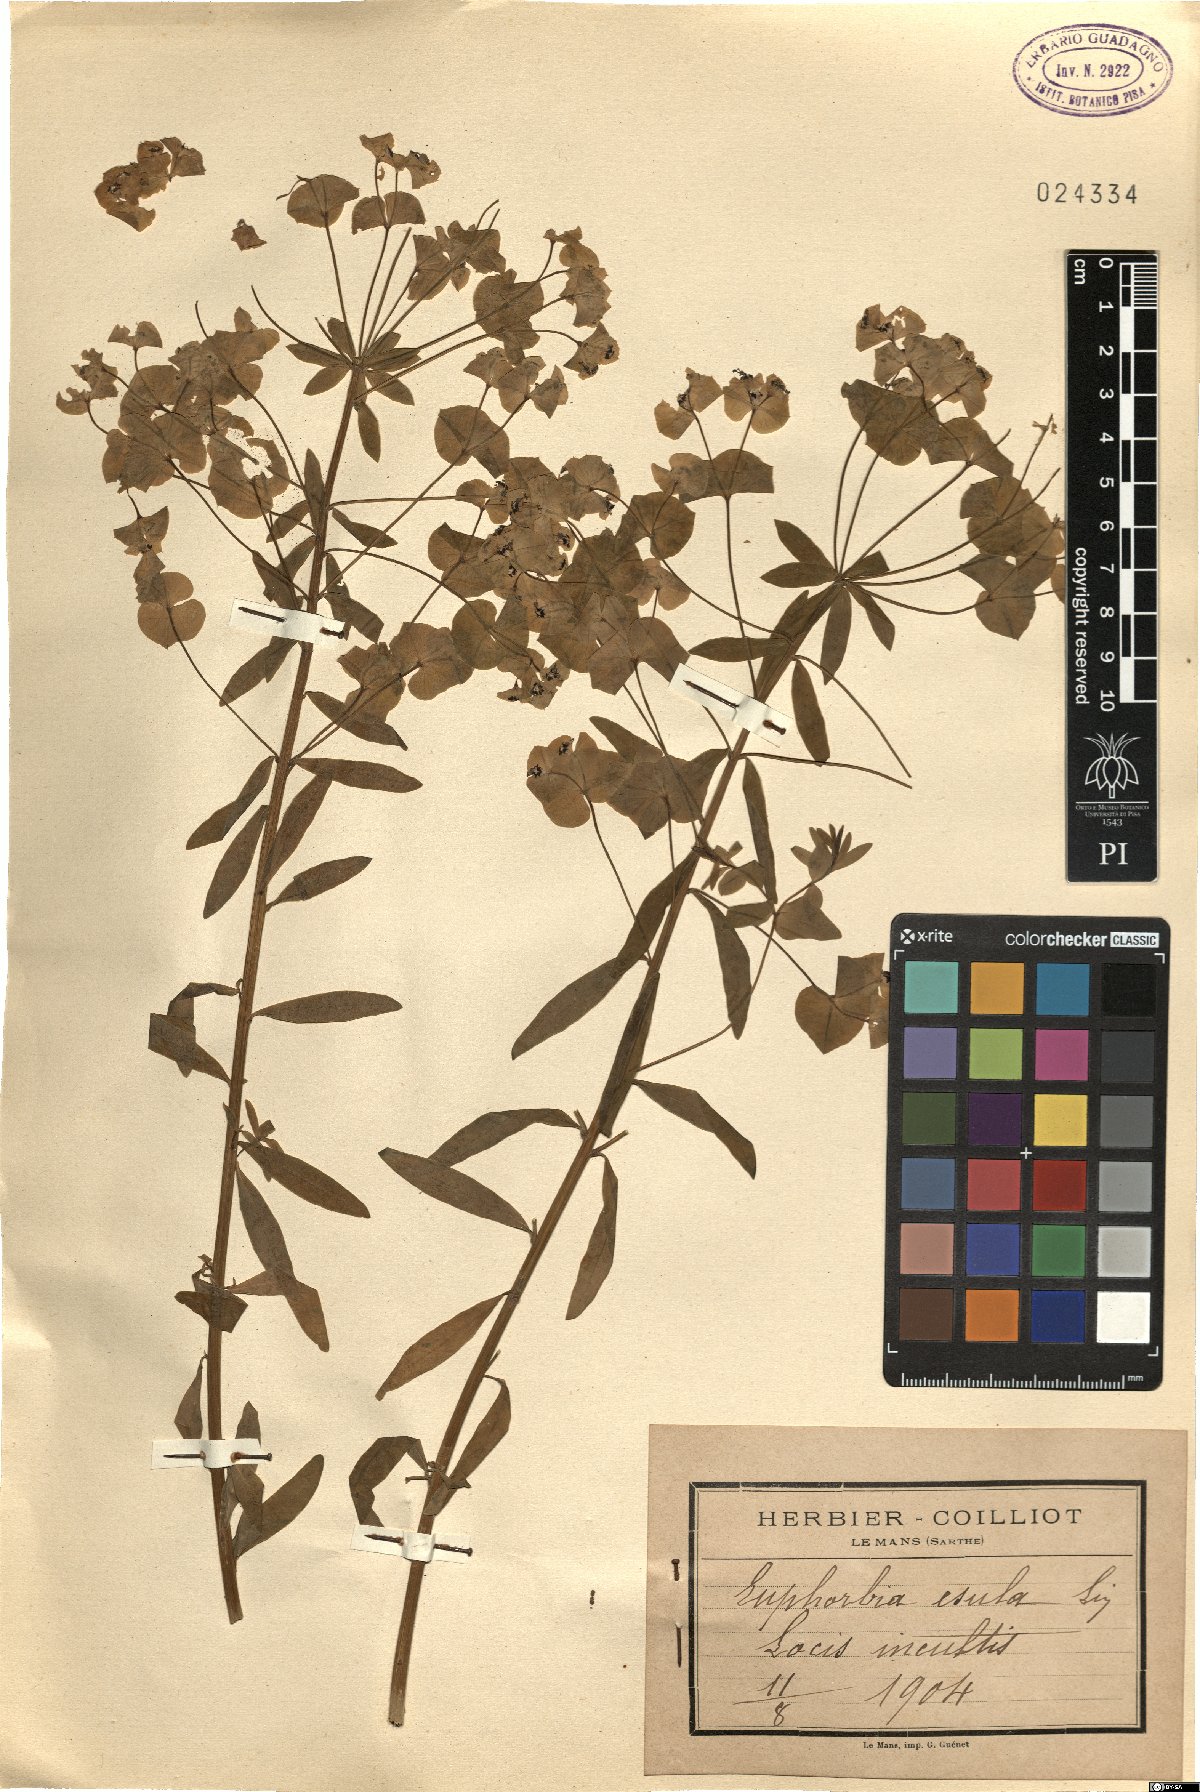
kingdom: Plantae
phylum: Tracheophyta
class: Magnoliopsida
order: Malpighiales
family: Euphorbiaceae
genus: Euphorbia
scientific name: Euphorbia esula
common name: Leafy spurge
